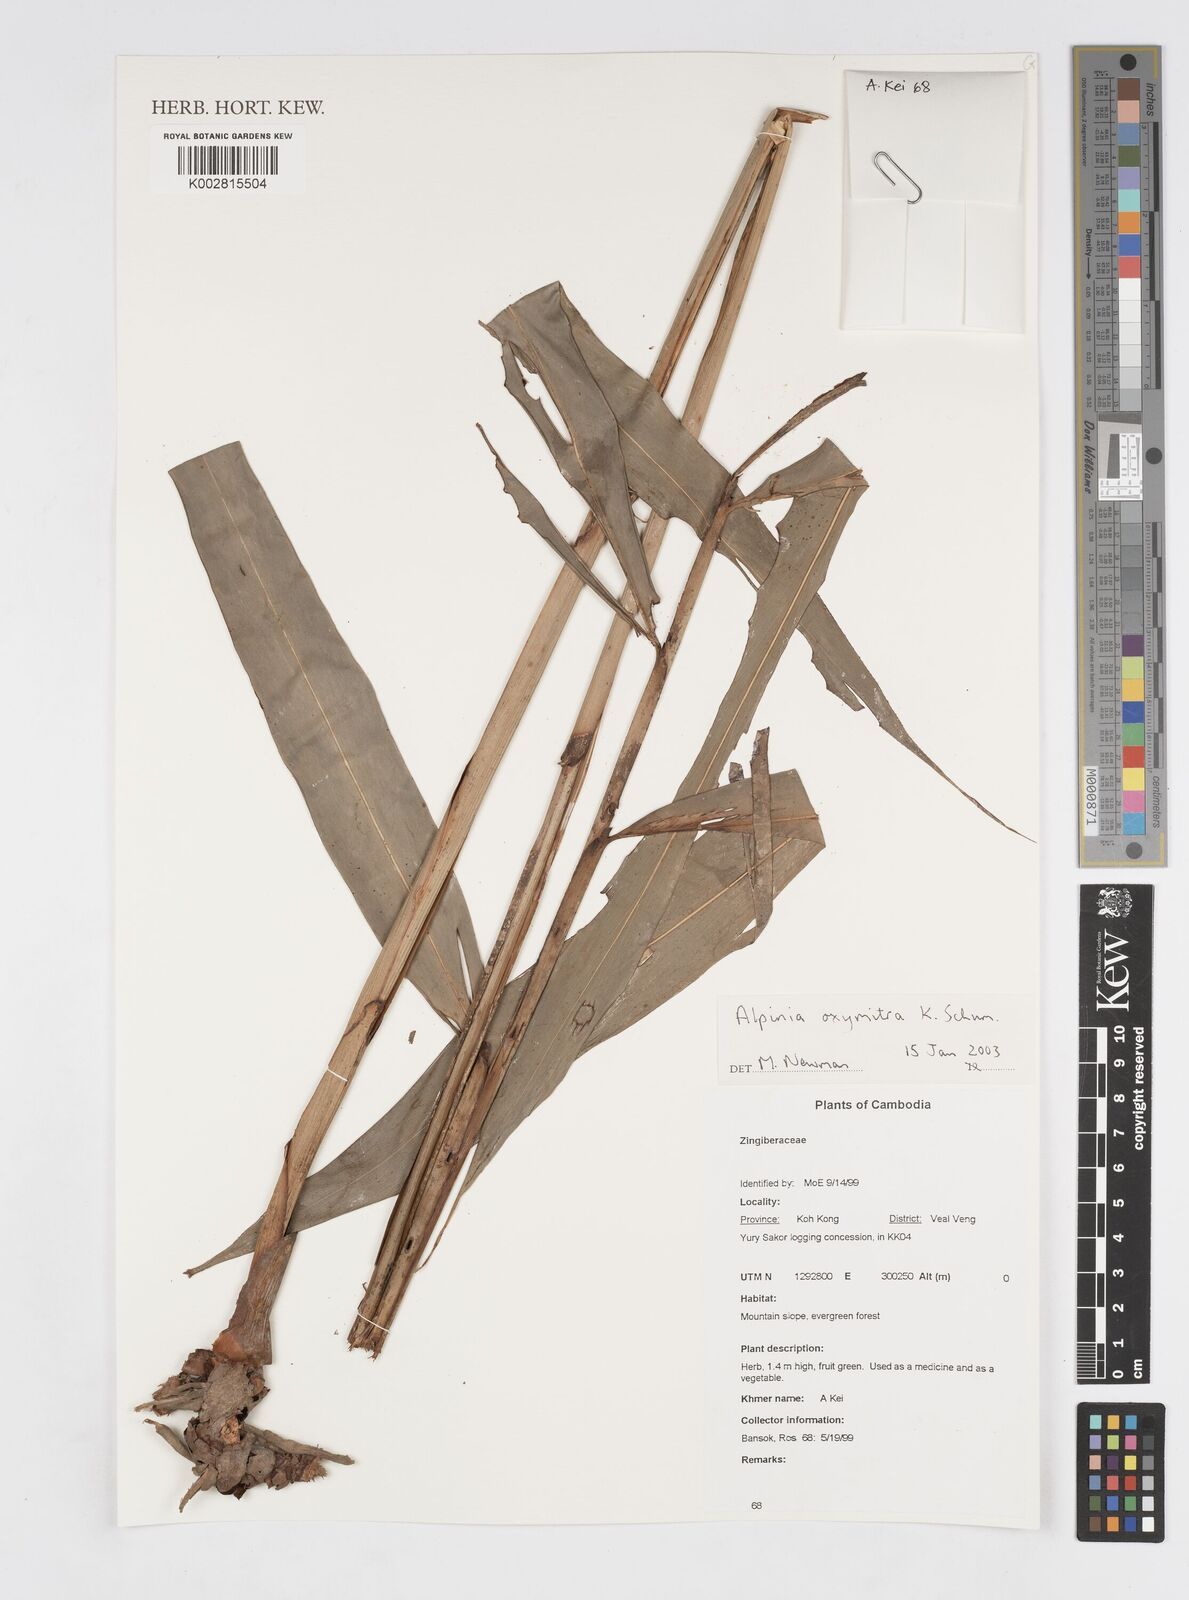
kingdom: Plantae
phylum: Tracheophyta
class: Liliopsida
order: Zingiberales
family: Zingiberaceae
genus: Alpinia
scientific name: Alpinia oxymitra
